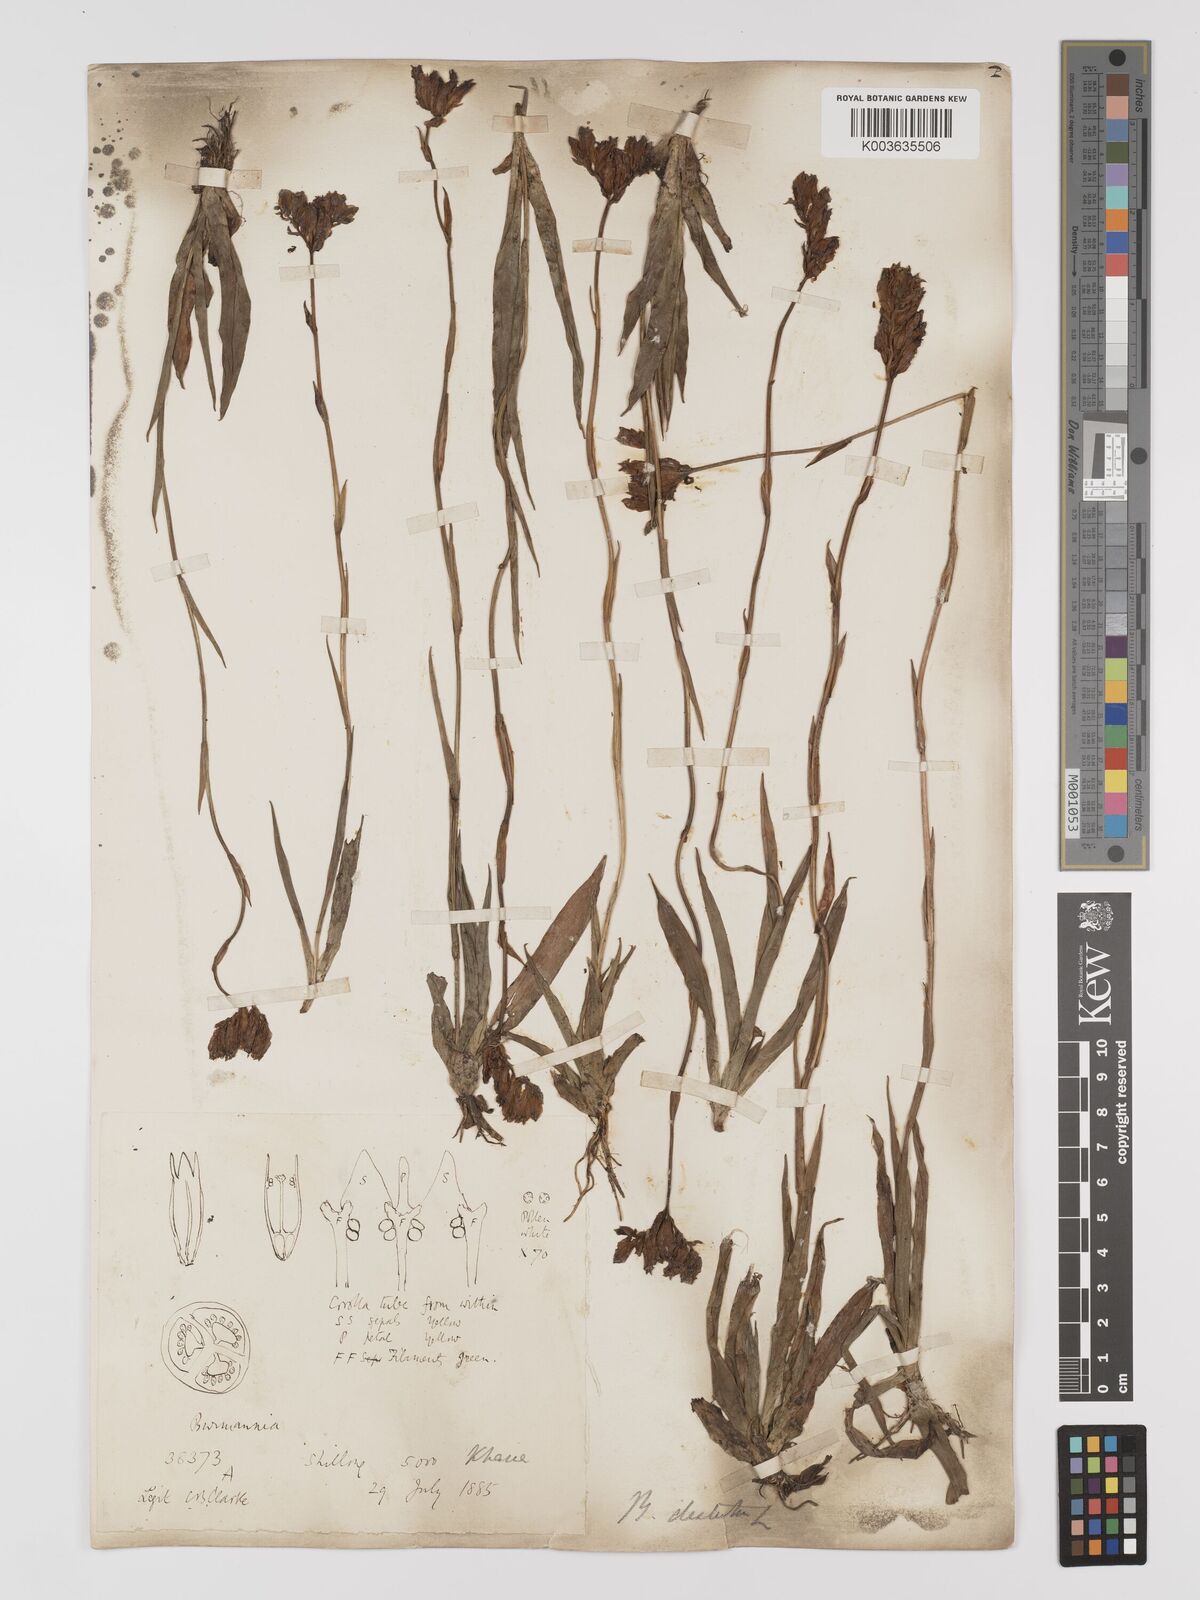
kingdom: Plantae
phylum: Tracheophyta
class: Liliopsida
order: Dioscoreales
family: Burmanniaceae
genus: Burmannia
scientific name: Burmannia disticha
